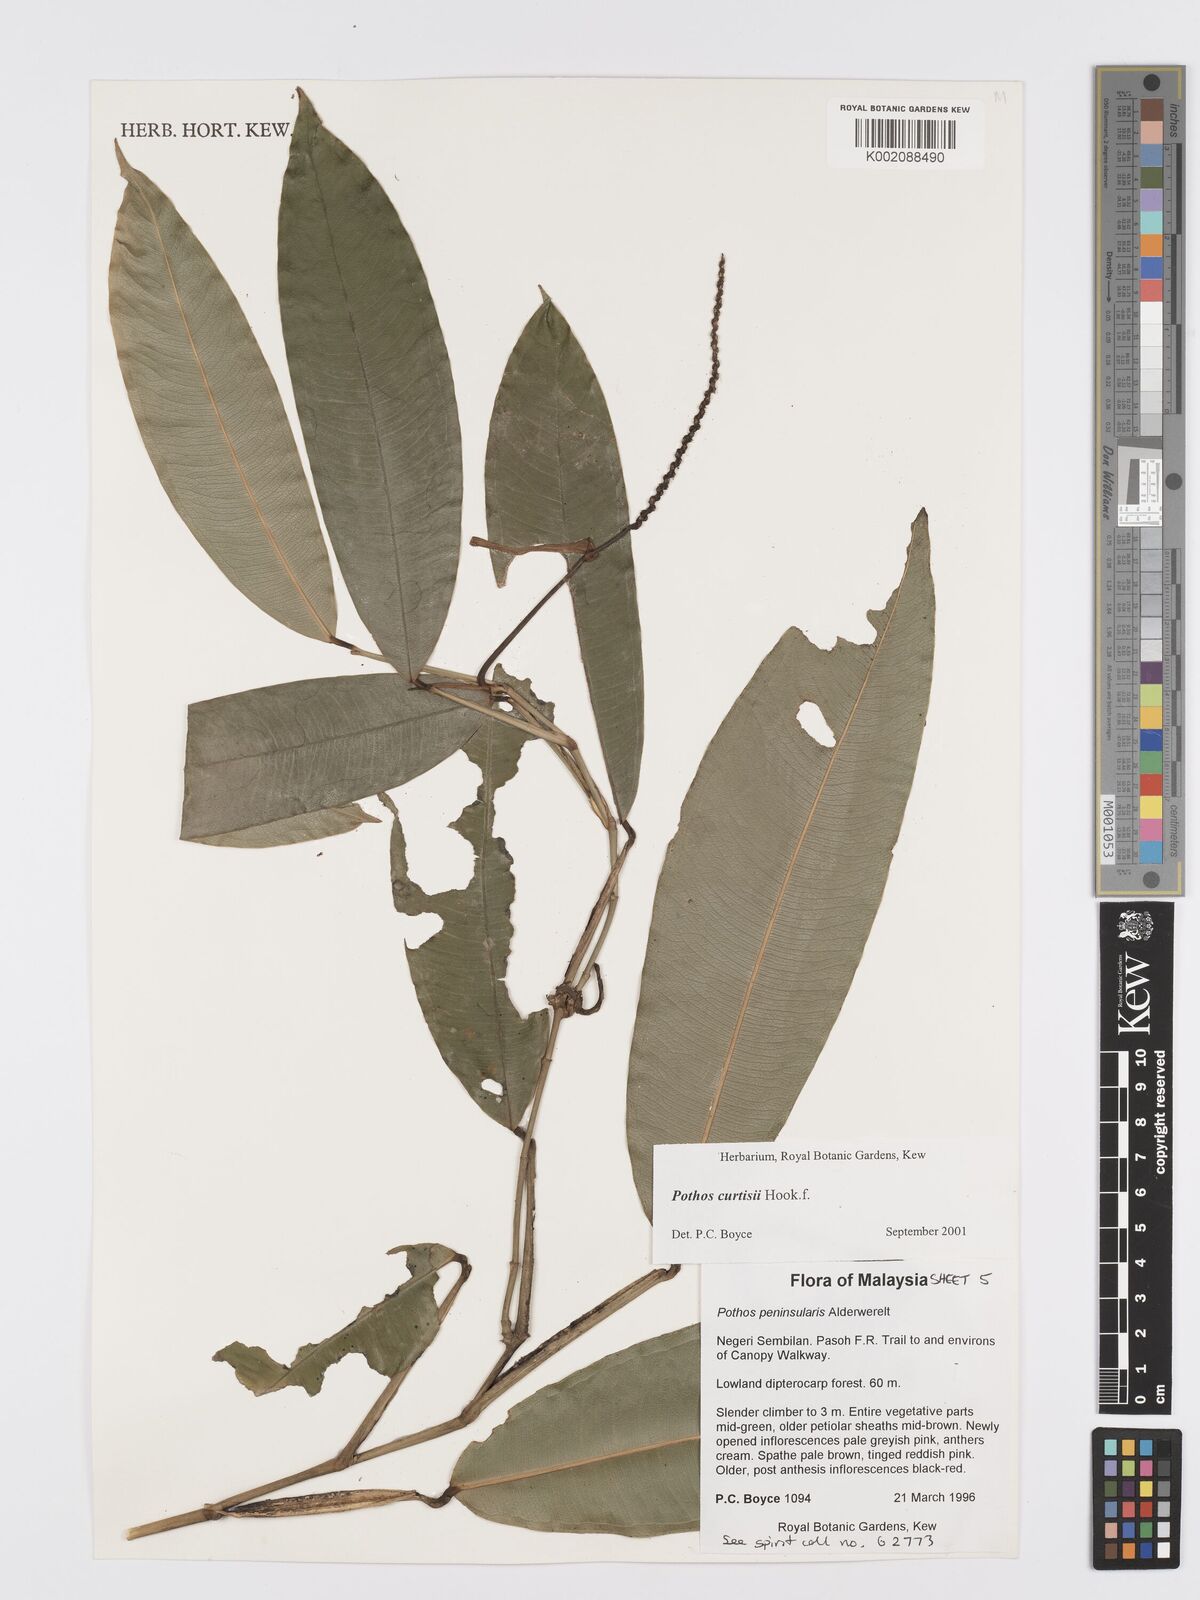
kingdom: Plantae
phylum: Tracheophyta
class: Liliopsida
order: Alismatales
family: Araceae
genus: Pothos
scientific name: Pothos curtisii
